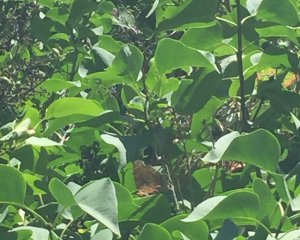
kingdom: Animalia
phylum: Arthropoda
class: Insecta
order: Lepidoptera
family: Nymphalidae
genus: Polygonia
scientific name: Polygonia comma
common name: Eastern Comma
